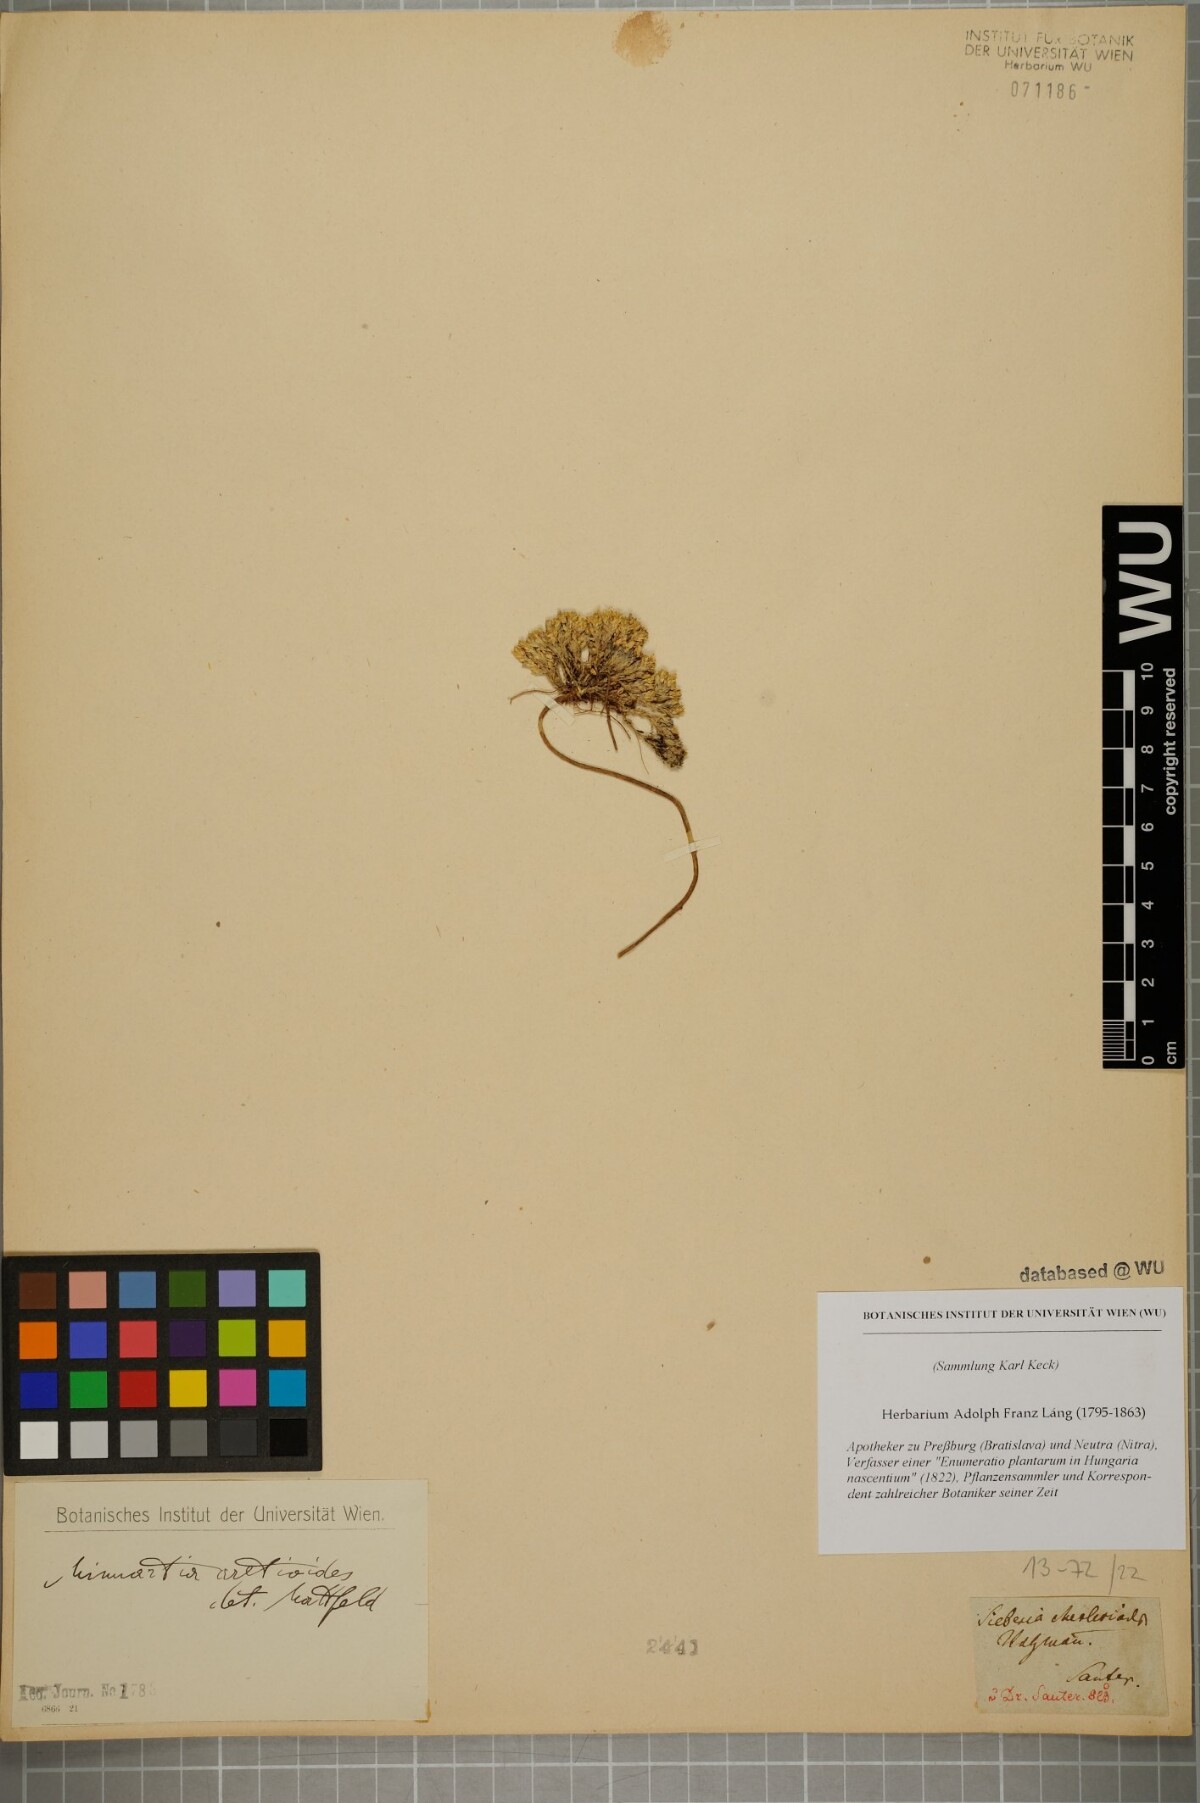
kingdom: Plantae
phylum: Tracheophyta
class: Magnoliopsida
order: Caryophyllales
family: Caryophyllaceae
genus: Facchinia
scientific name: Facchinia cherlerioides
